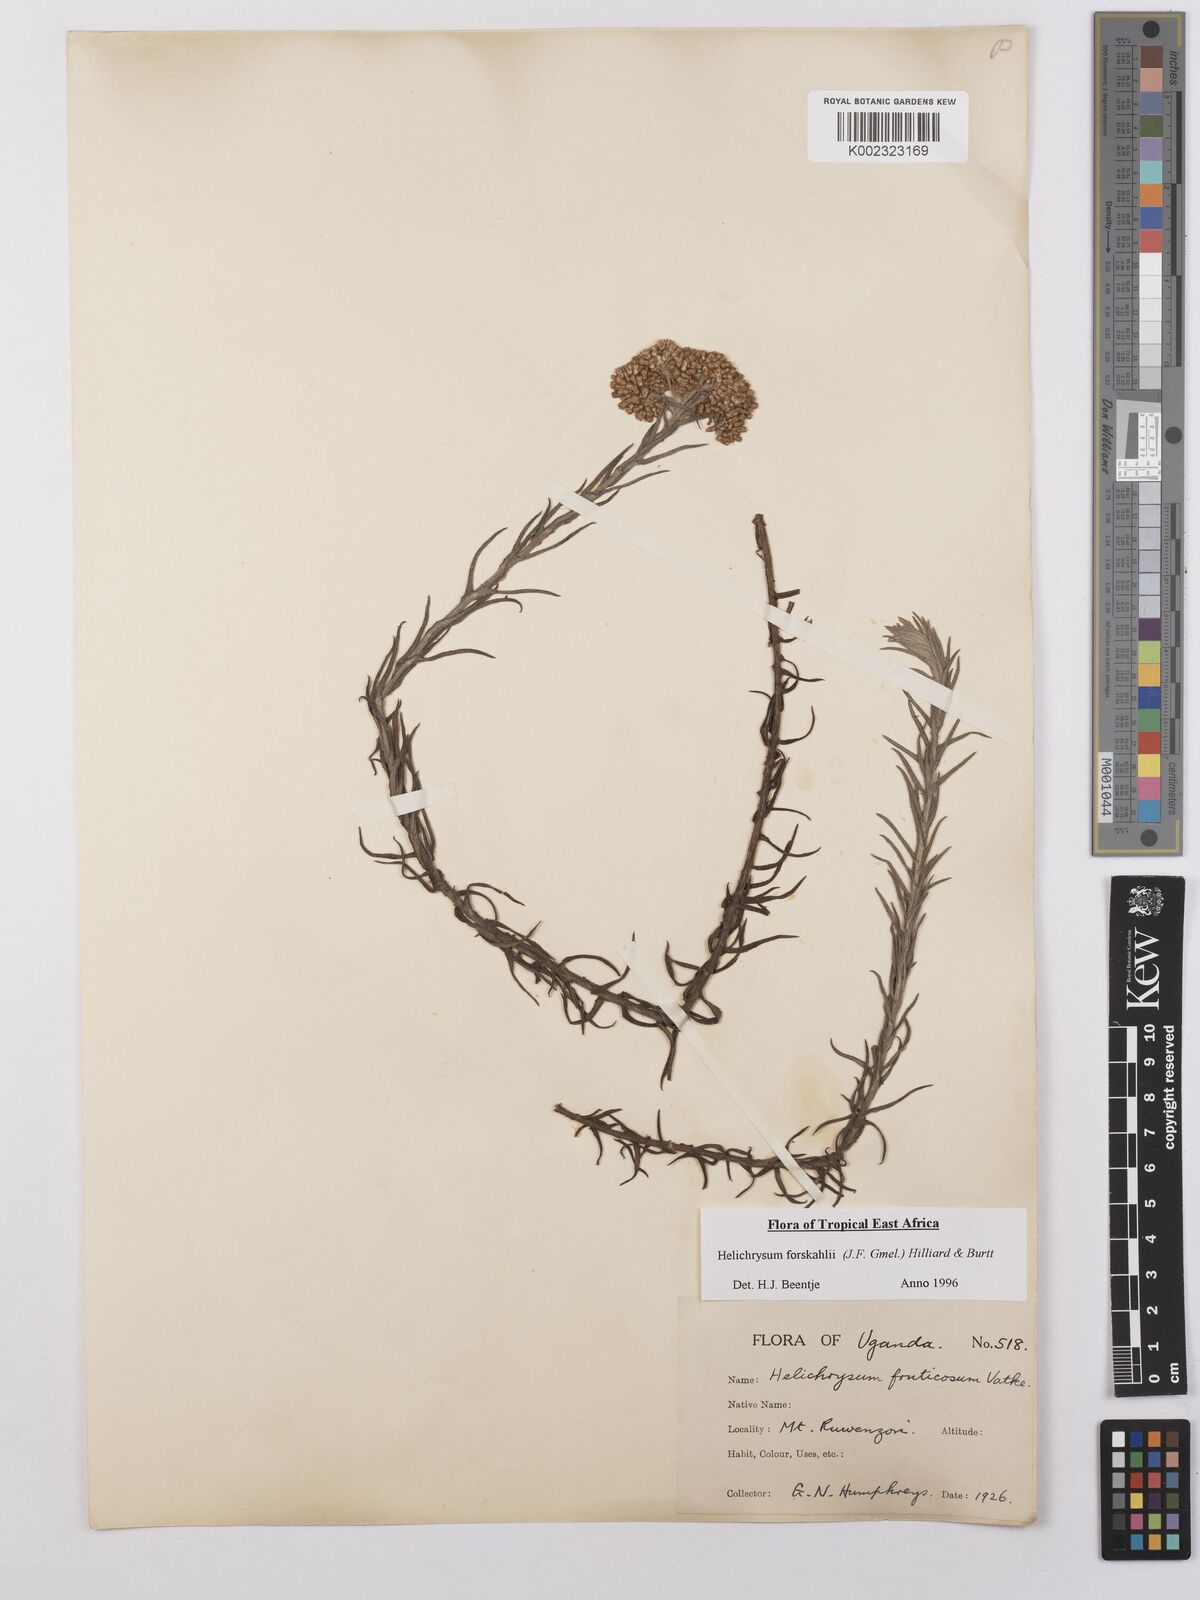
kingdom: Plantae
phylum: Tracheophyta
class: Magnoliopsida
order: Asterales
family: Asteraceae
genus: Helichrysum
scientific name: Helichrysum forskahlii
